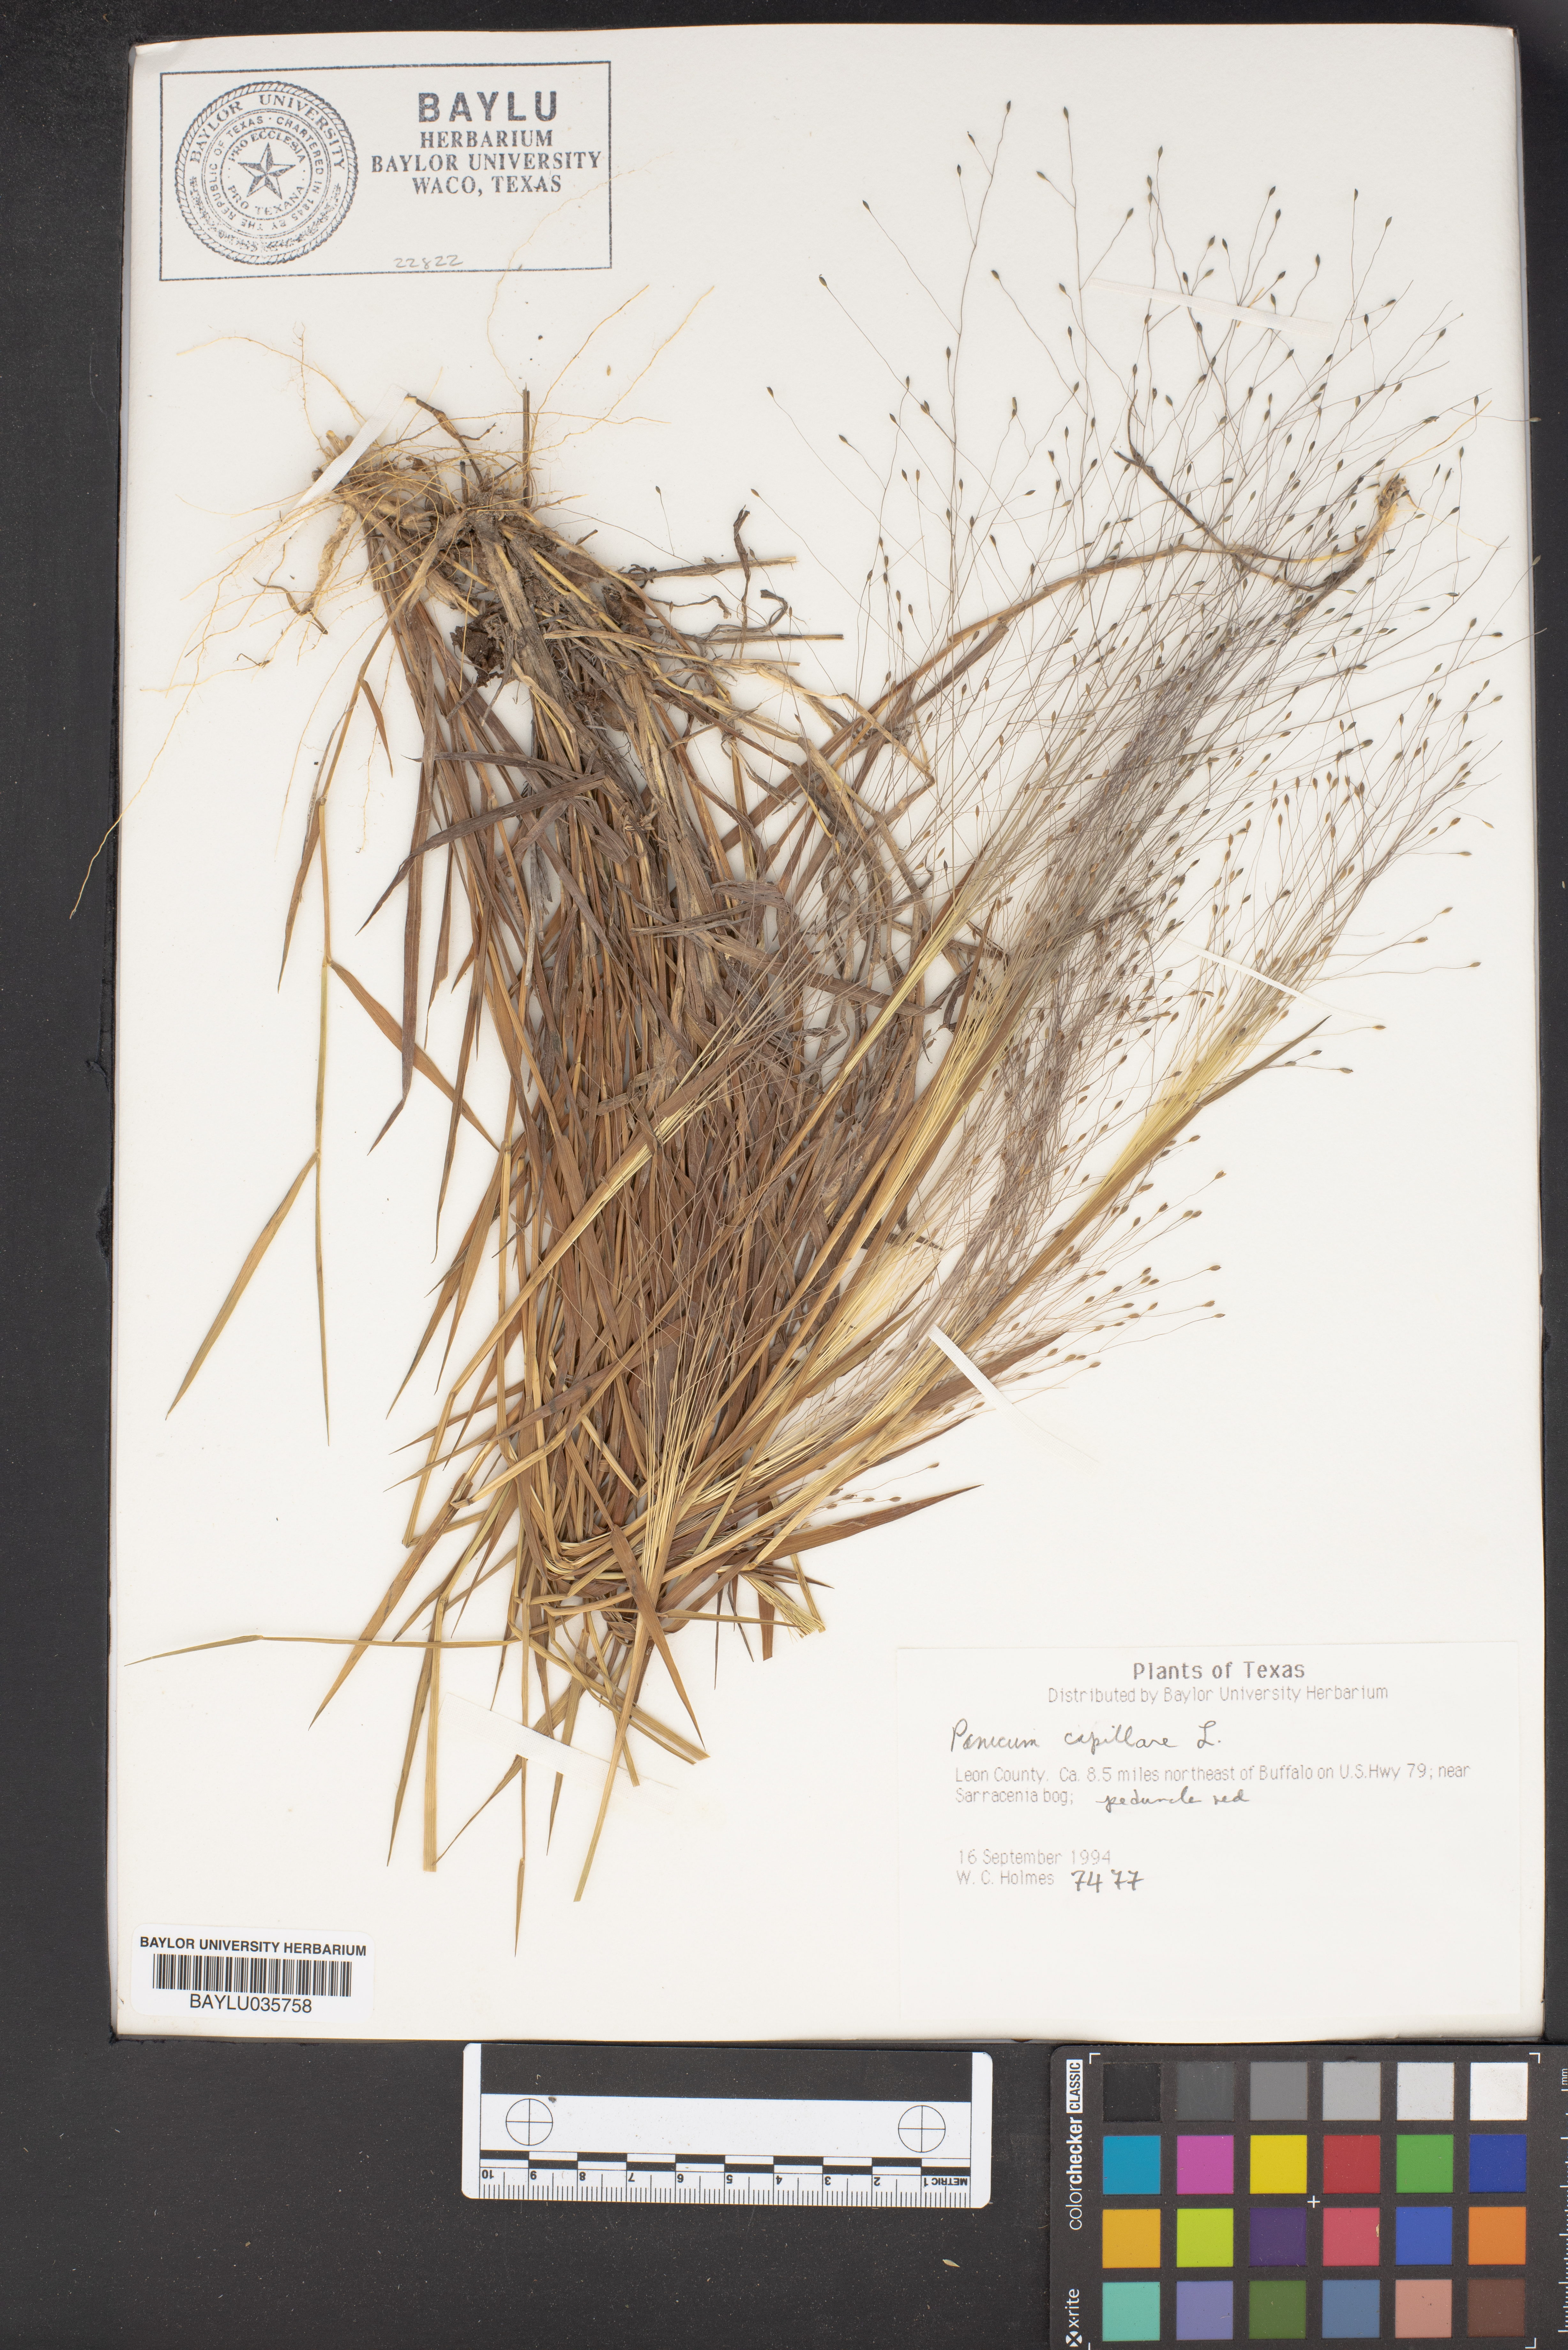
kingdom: Plantae
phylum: Tracheophyta
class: Liliopsida
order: Poales
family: Poaceae
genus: Panicum
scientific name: Panicum capillare
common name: Witch-grass
